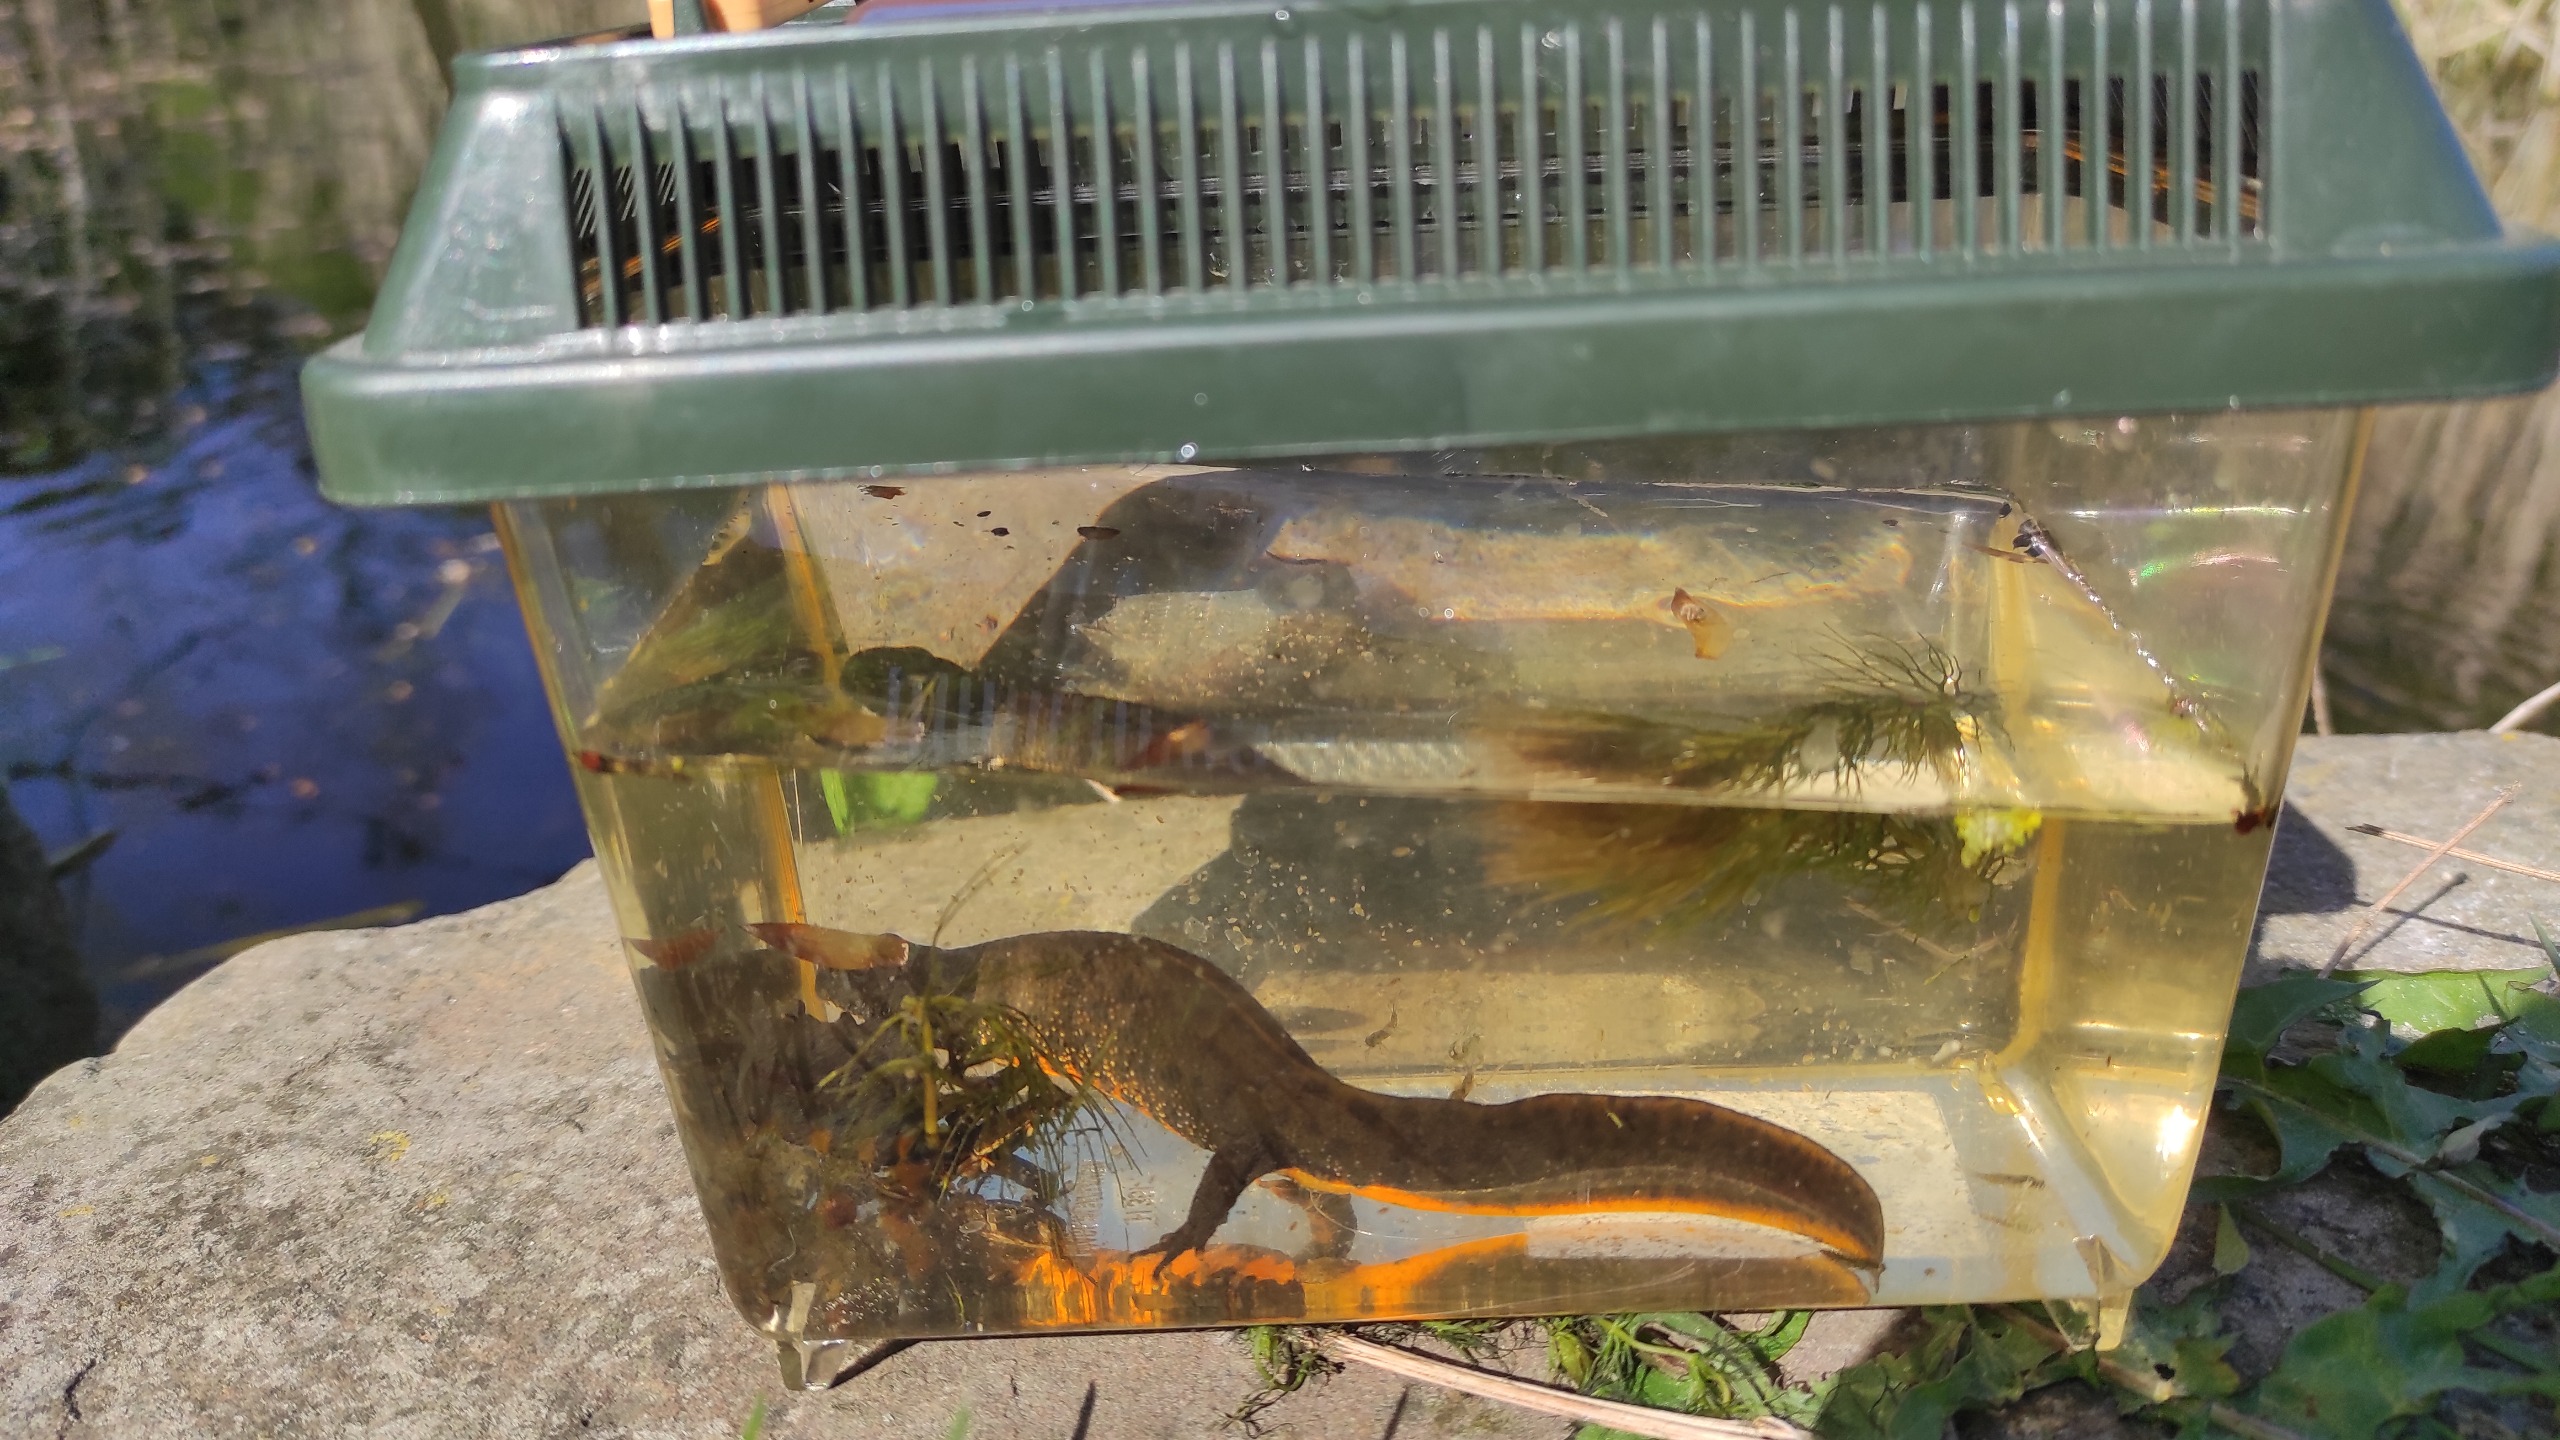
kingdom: Animalia
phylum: Chordata
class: Amphibia
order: Caudata
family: Salamandridae
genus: Triturus
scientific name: Triturus cristatus
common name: Stor vandsalamander
